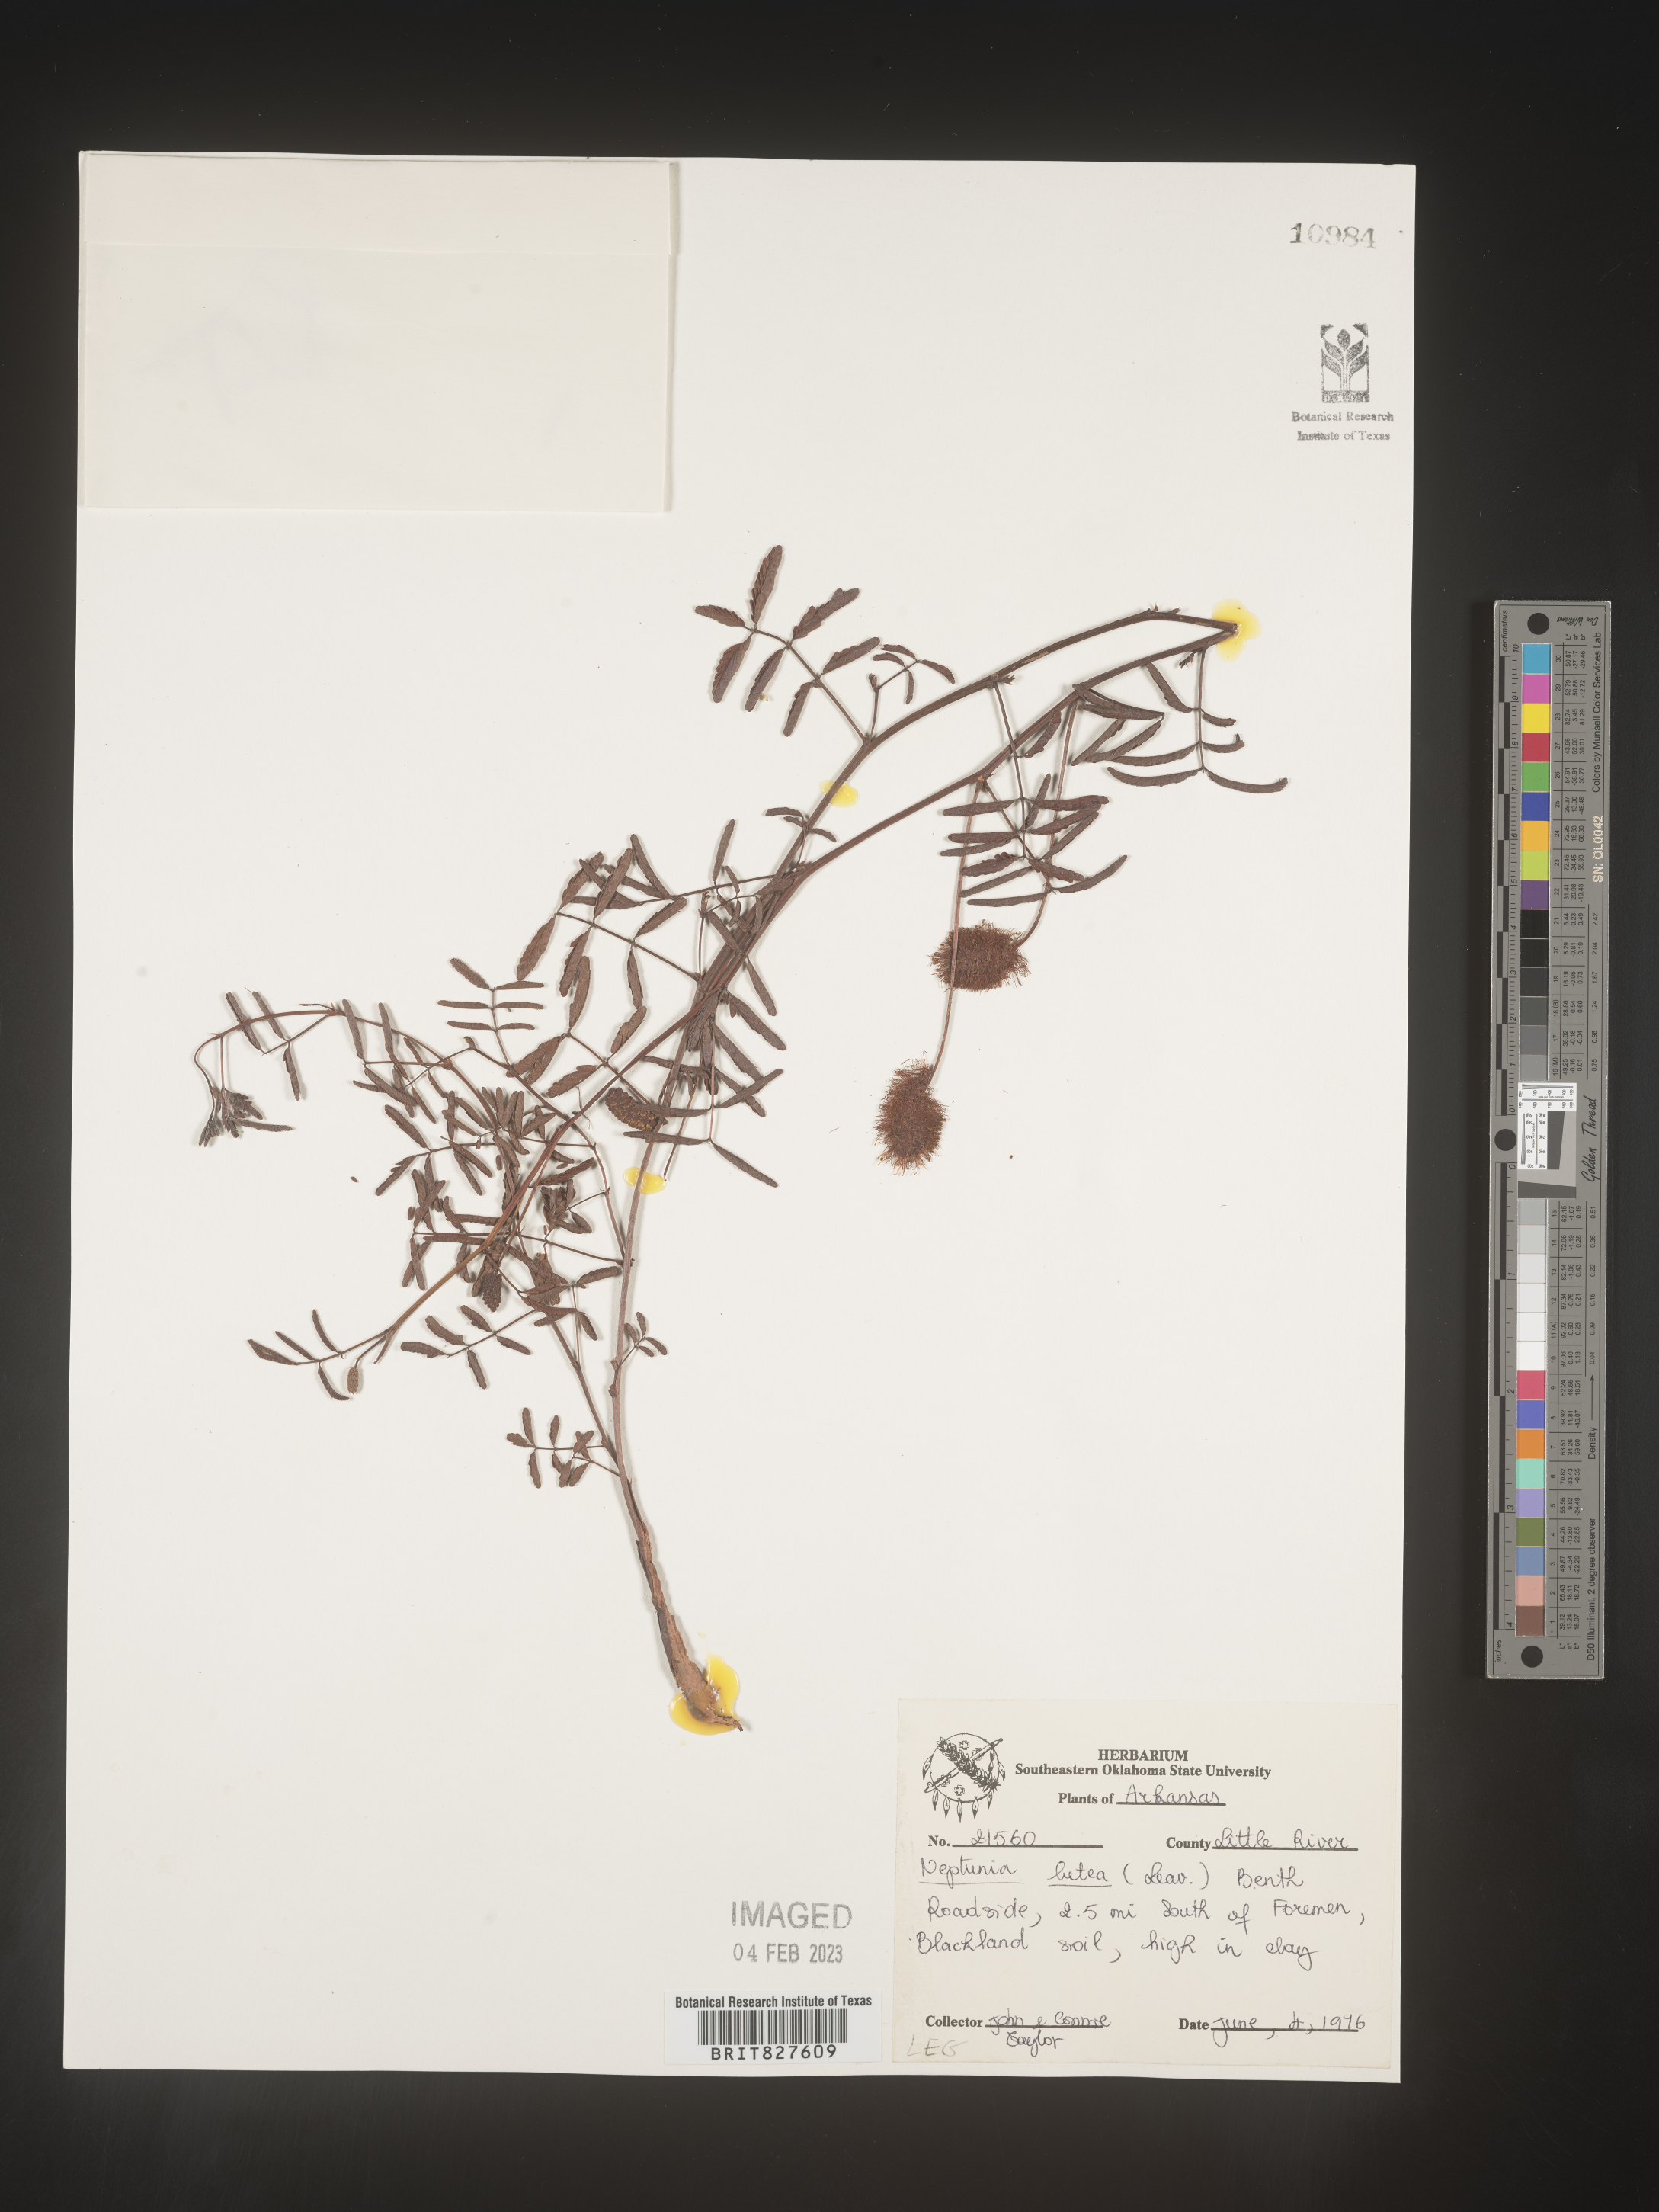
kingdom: Plantae
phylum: Tracheophyta
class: Magnoliopsida
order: Fabales
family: Fabaceae
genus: Neptunia
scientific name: Neptunia lutea
